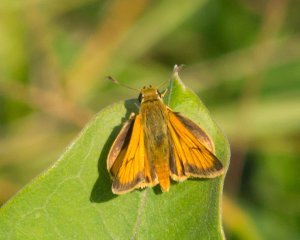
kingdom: Animalia
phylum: Arthropoda
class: Insecta
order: Lepidoptera
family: Hesperiidae
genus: Atrytone
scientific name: Atrytone delaware
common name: Delaware Skipper
